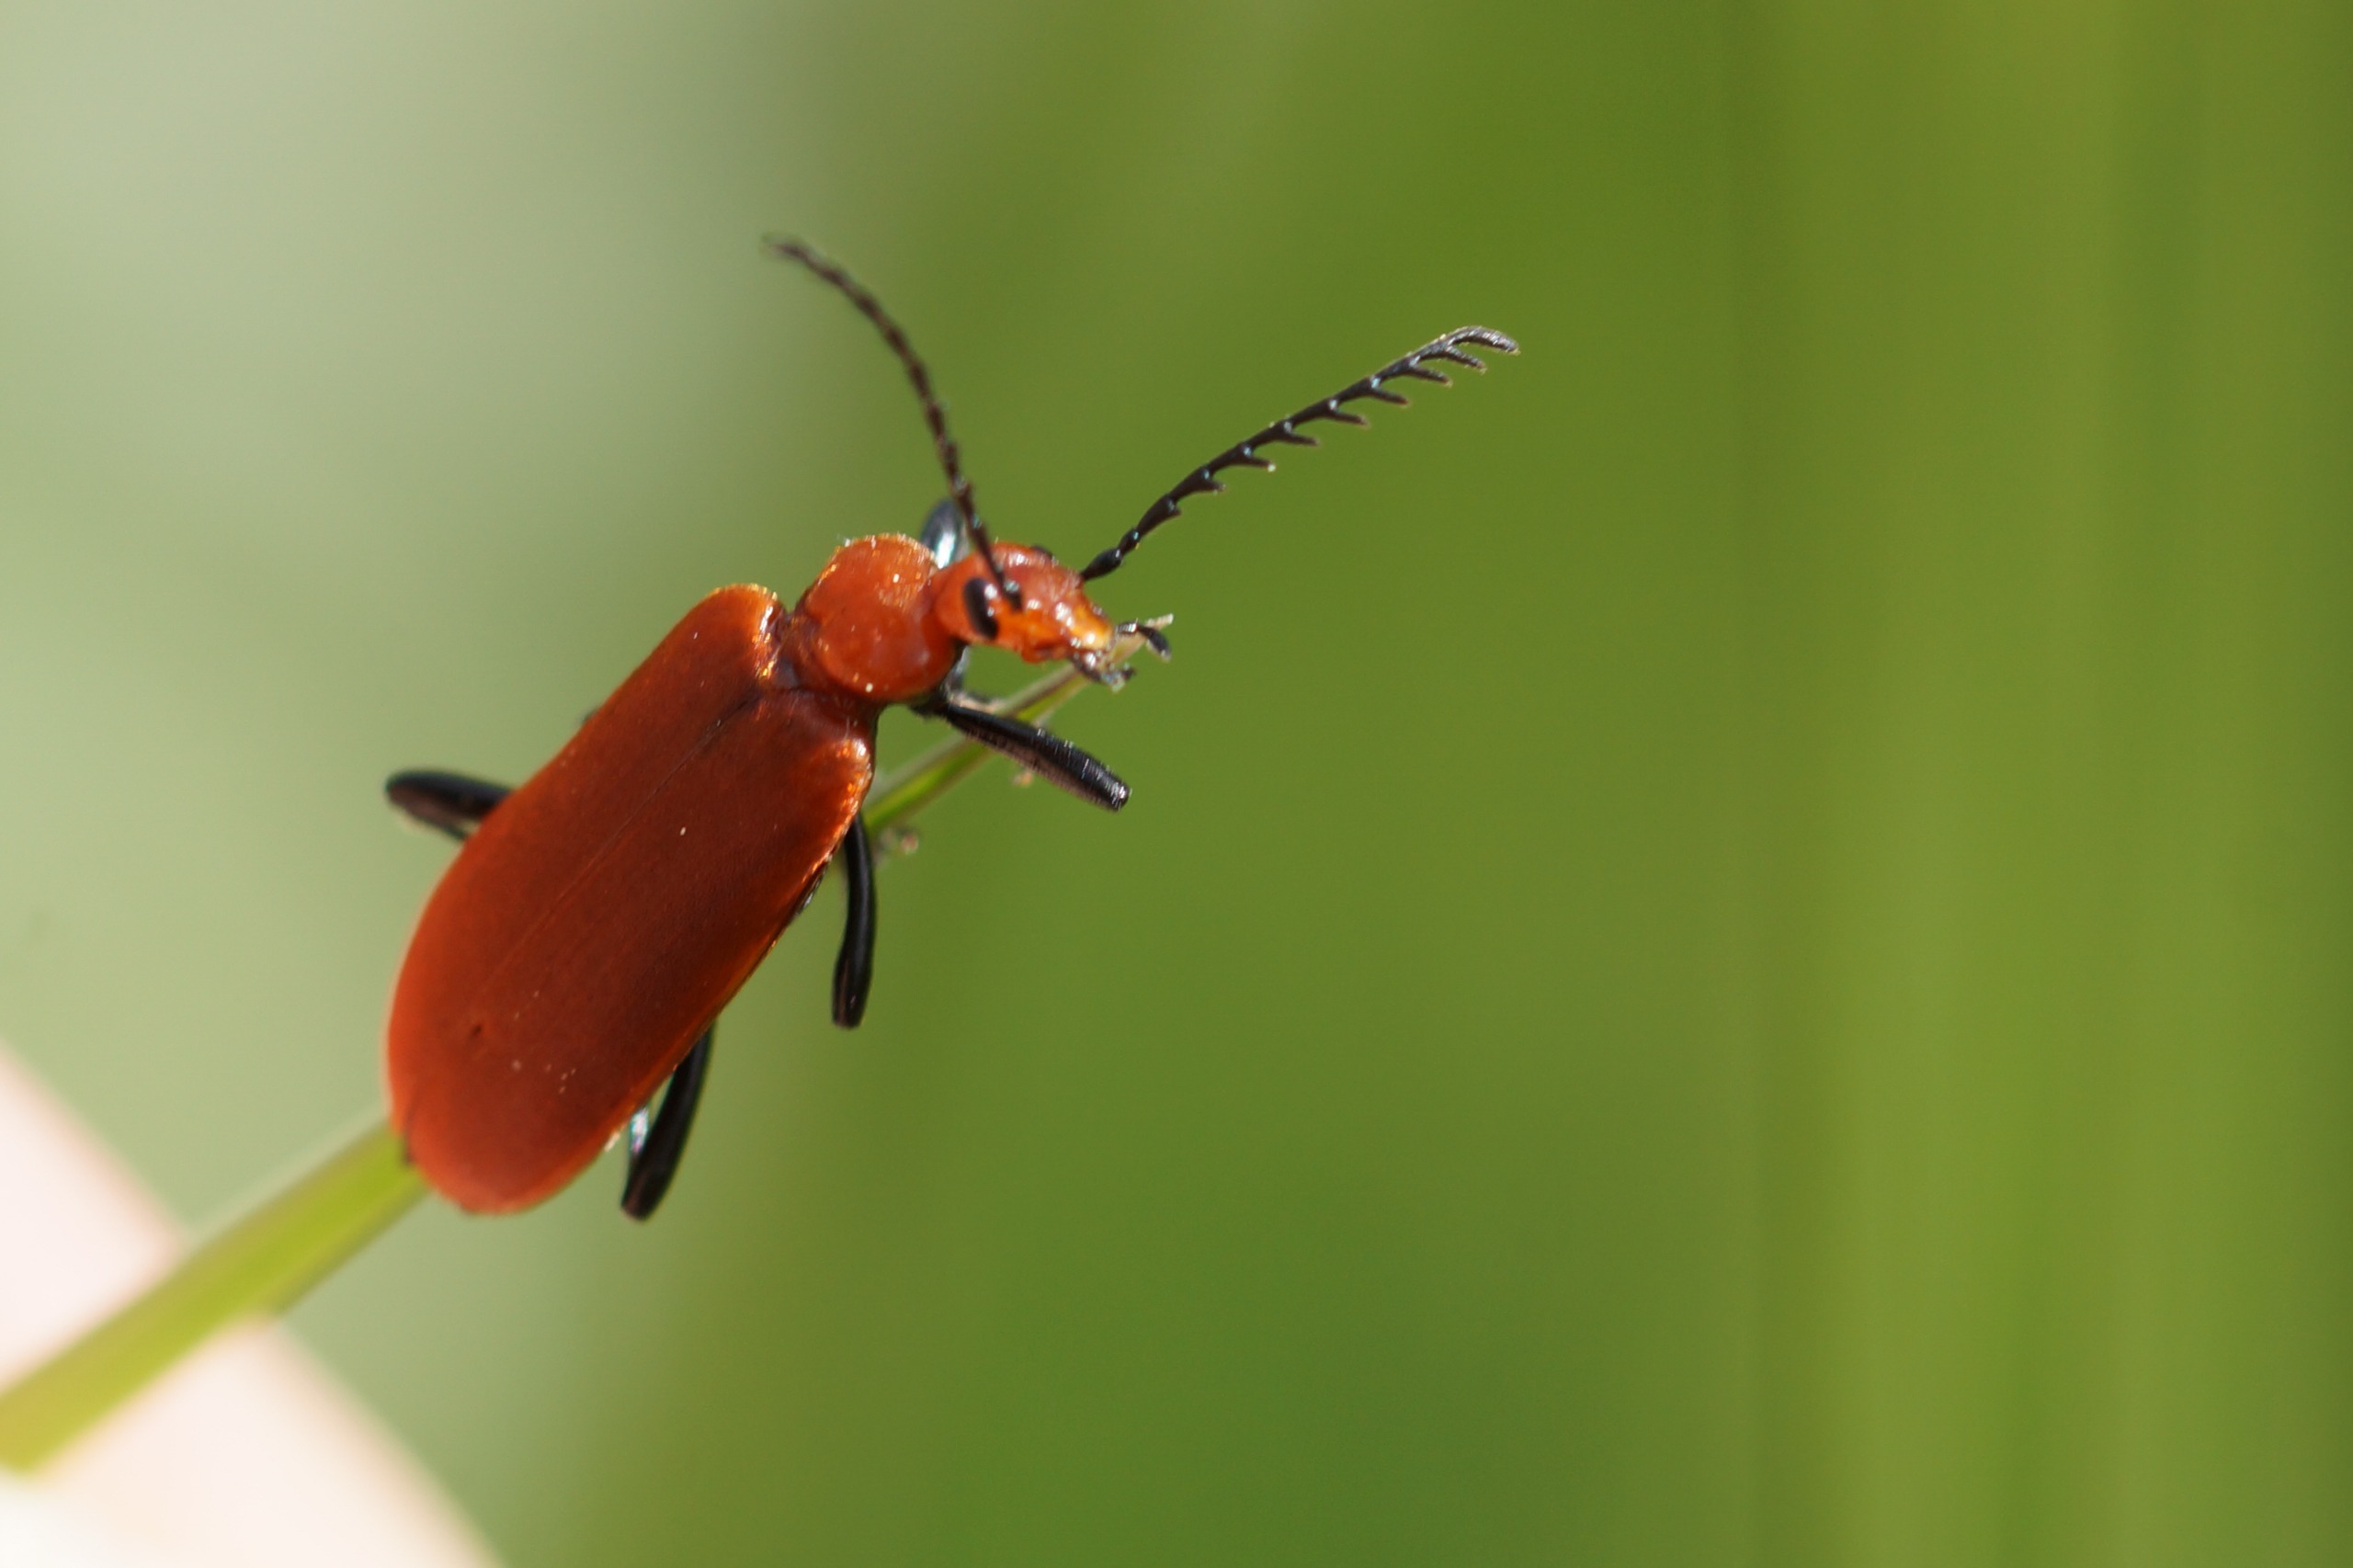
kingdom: Animalia
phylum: Arthropoda
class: Insecta
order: Coleoptera
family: Pyrochroidae
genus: Pyrochroa
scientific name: Pyrochroa serraticornis
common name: Rødhovedet kardinalbille
